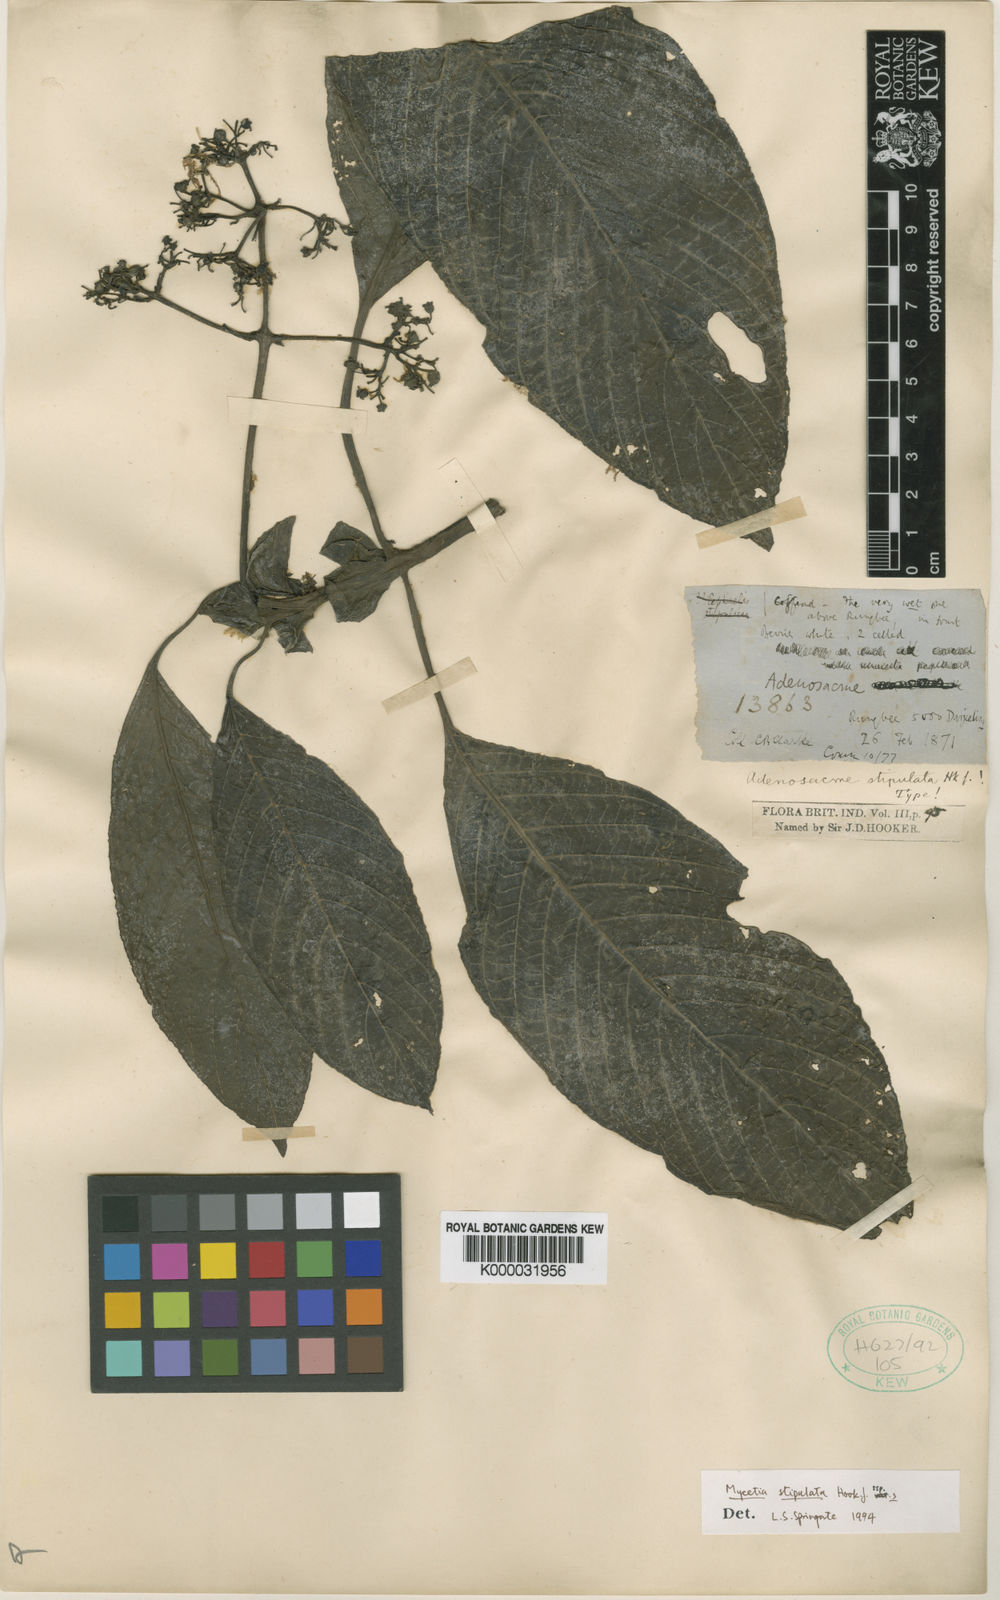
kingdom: Plantae
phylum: Tracheophyta
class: Magnoliopsida
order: Gentianales
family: Rubiaceae
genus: Mycetia
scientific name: Mycetia stipulata
